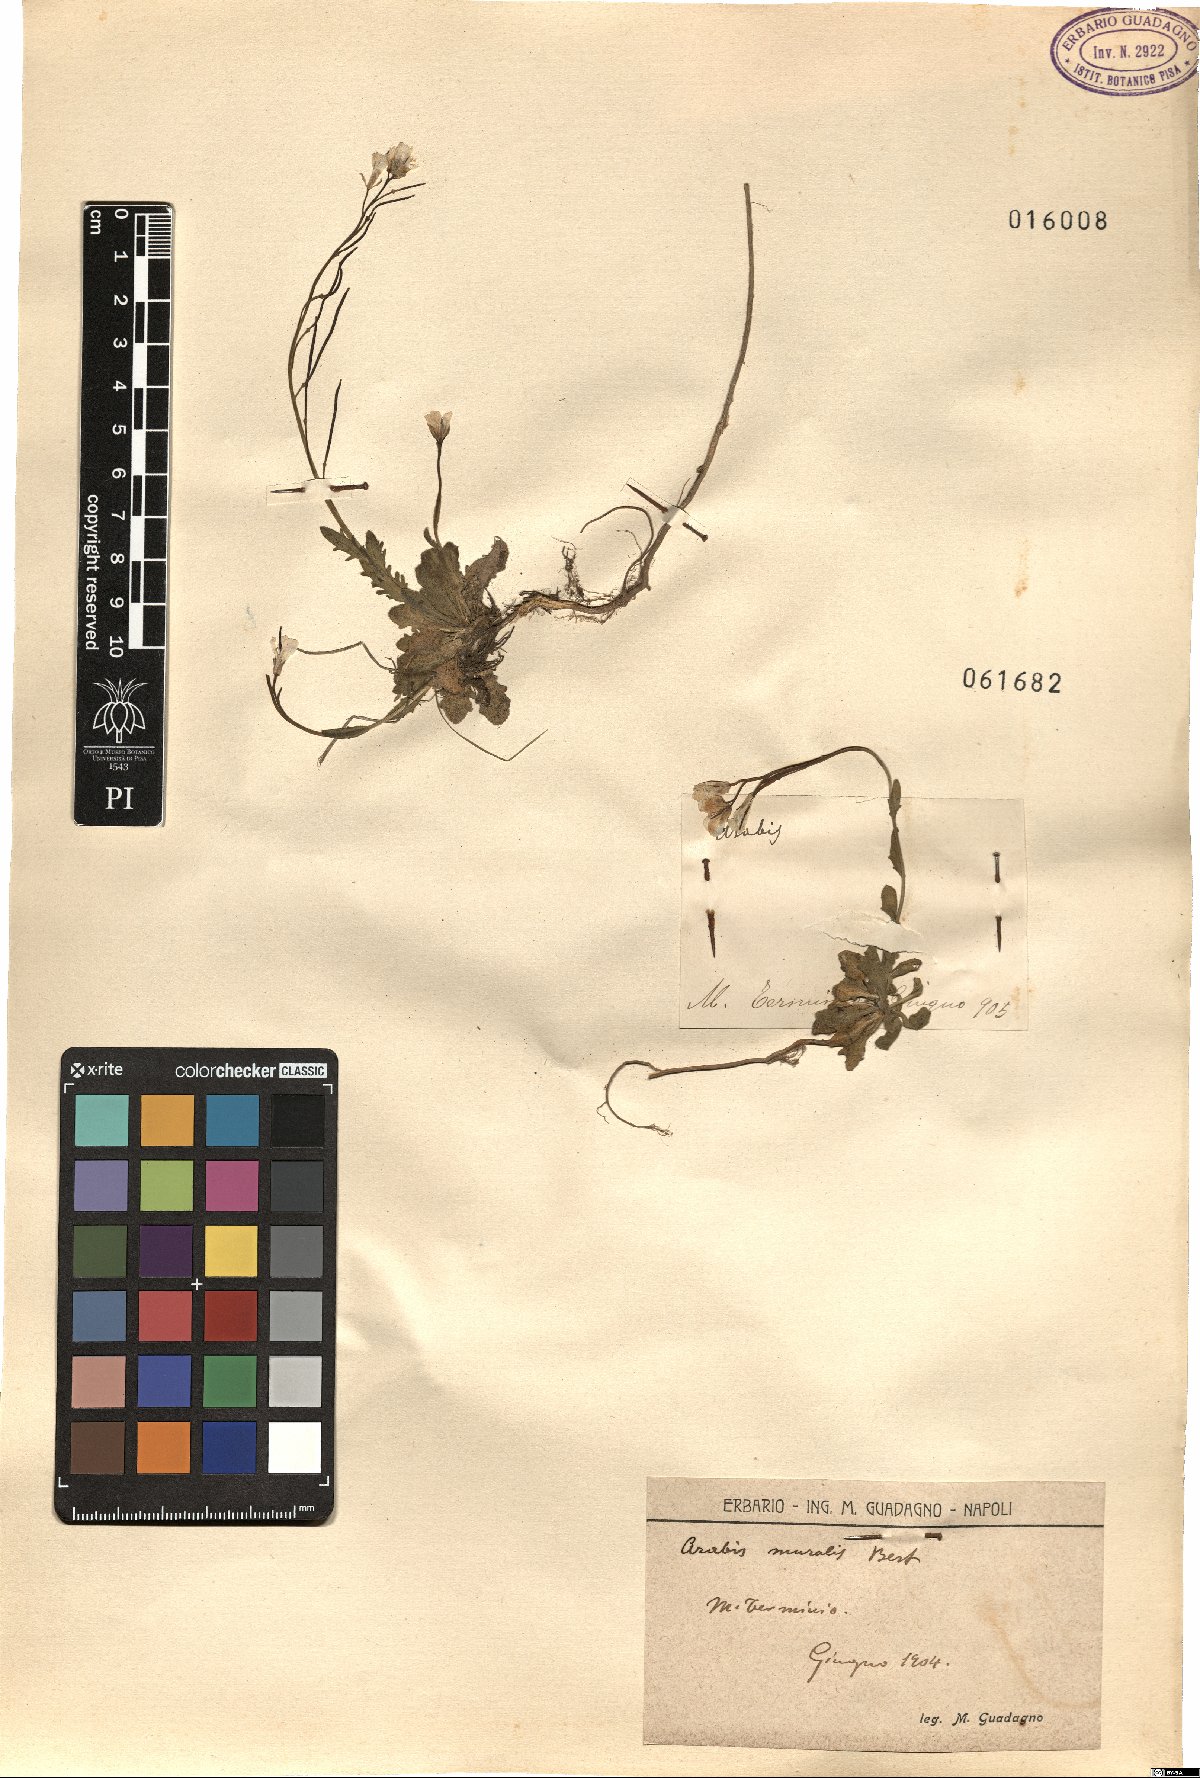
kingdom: Plantae
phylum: Tracheophyta
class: Magnoliopsida
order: Brassicales
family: Brassicaceae
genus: Arabis
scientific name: Arabis
